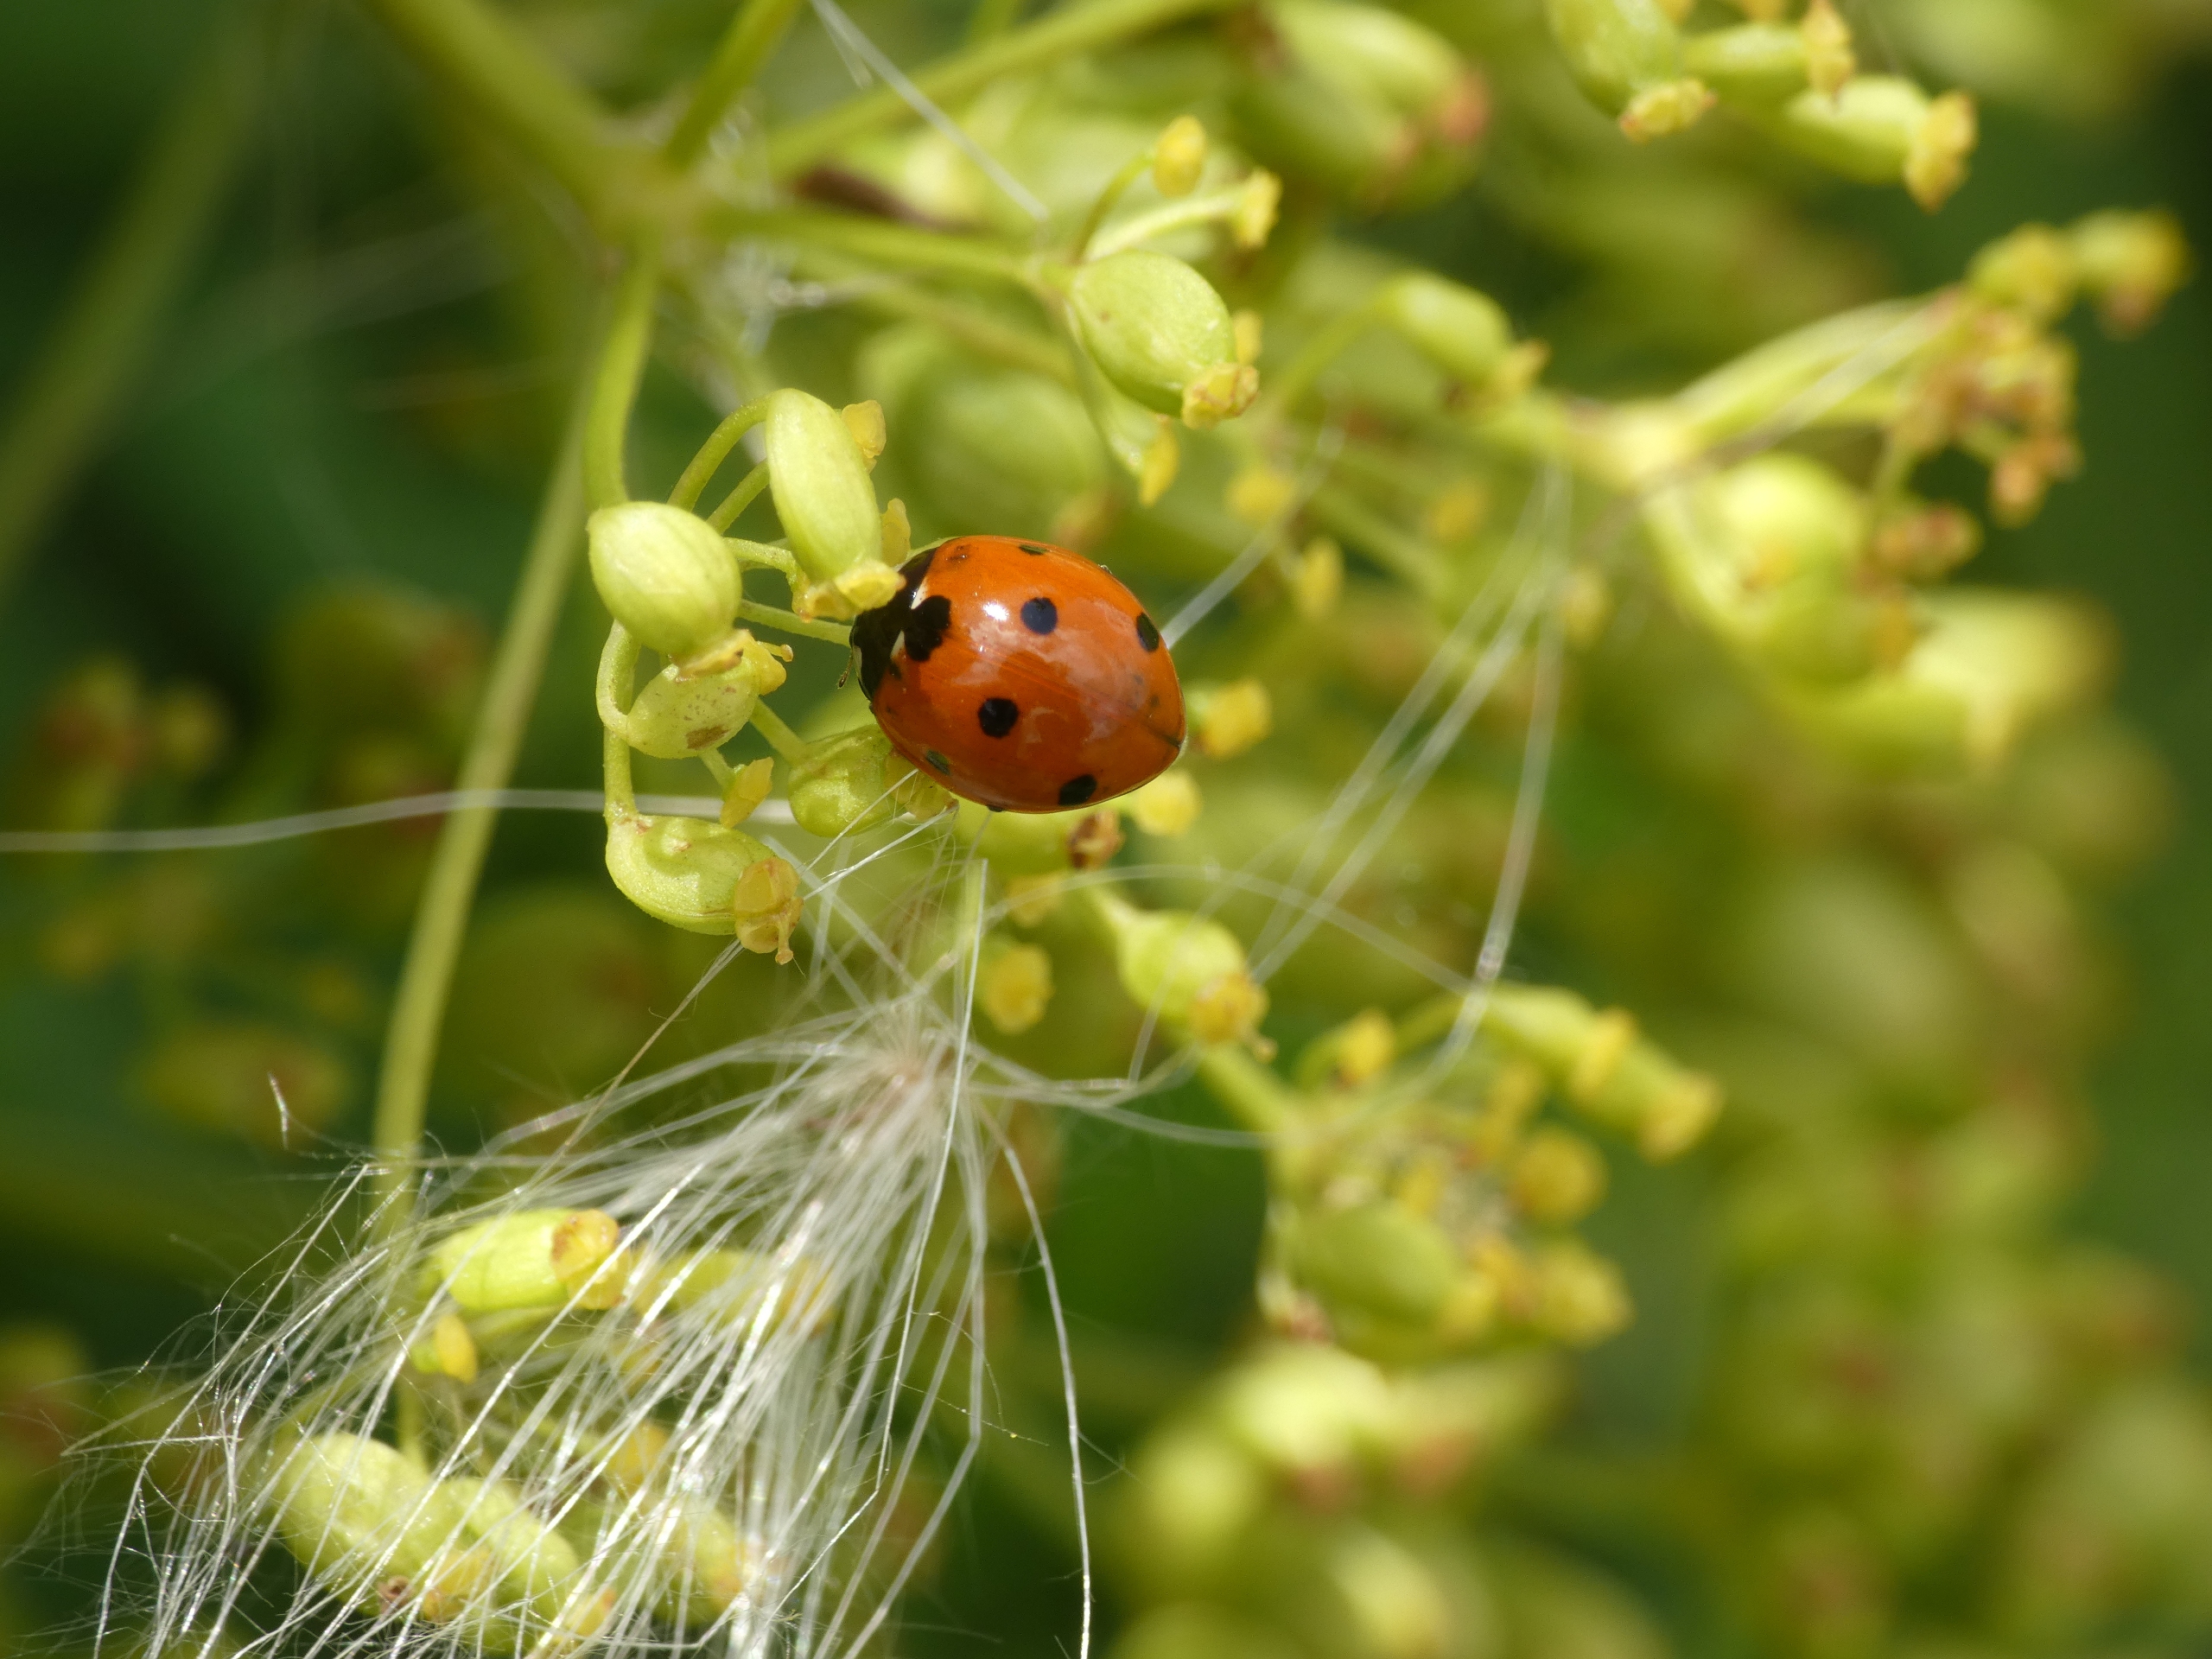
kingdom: Animalia
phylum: Arthropoda
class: Insecta
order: Coleoptera
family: Coccinellidae
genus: Coccinella
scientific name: Coccinella septempunctata
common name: Syvplettet mariehøne
